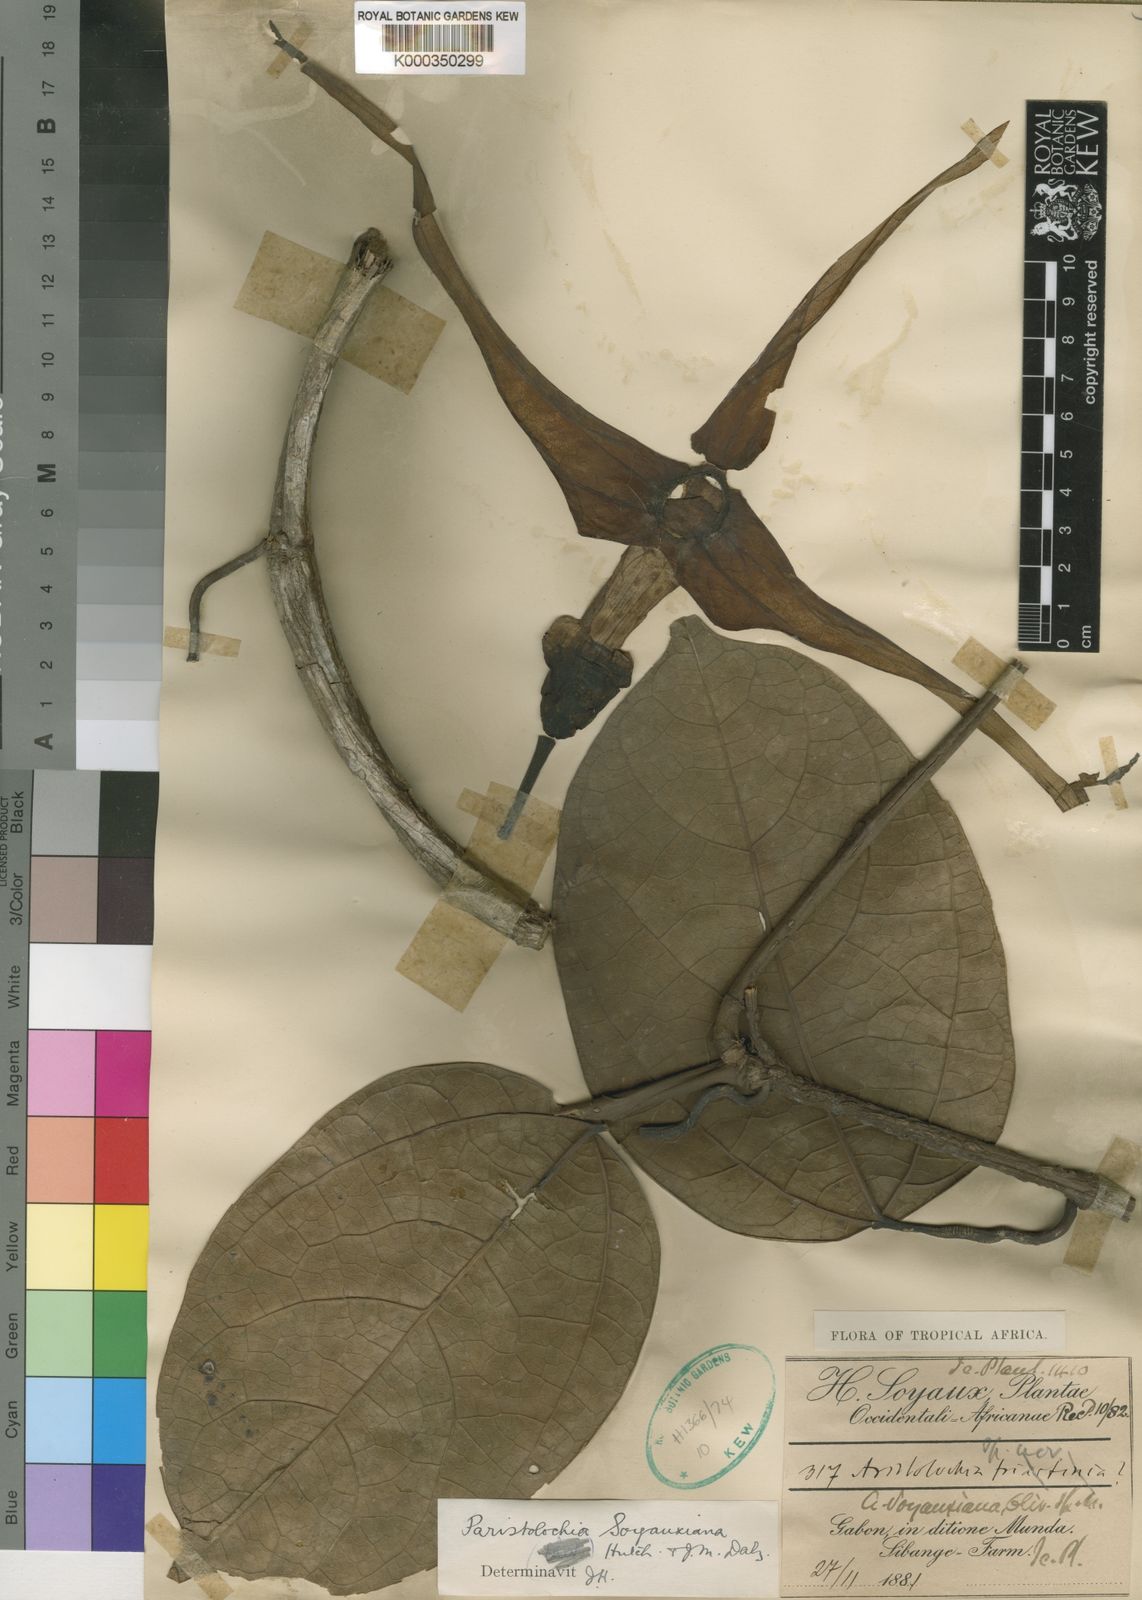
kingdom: Plantae
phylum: Tracheophyta
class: Magnoliopsida
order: Piperales
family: Aristolochiaceae
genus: Aristolochia
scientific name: Aristolochia macrocarpa
